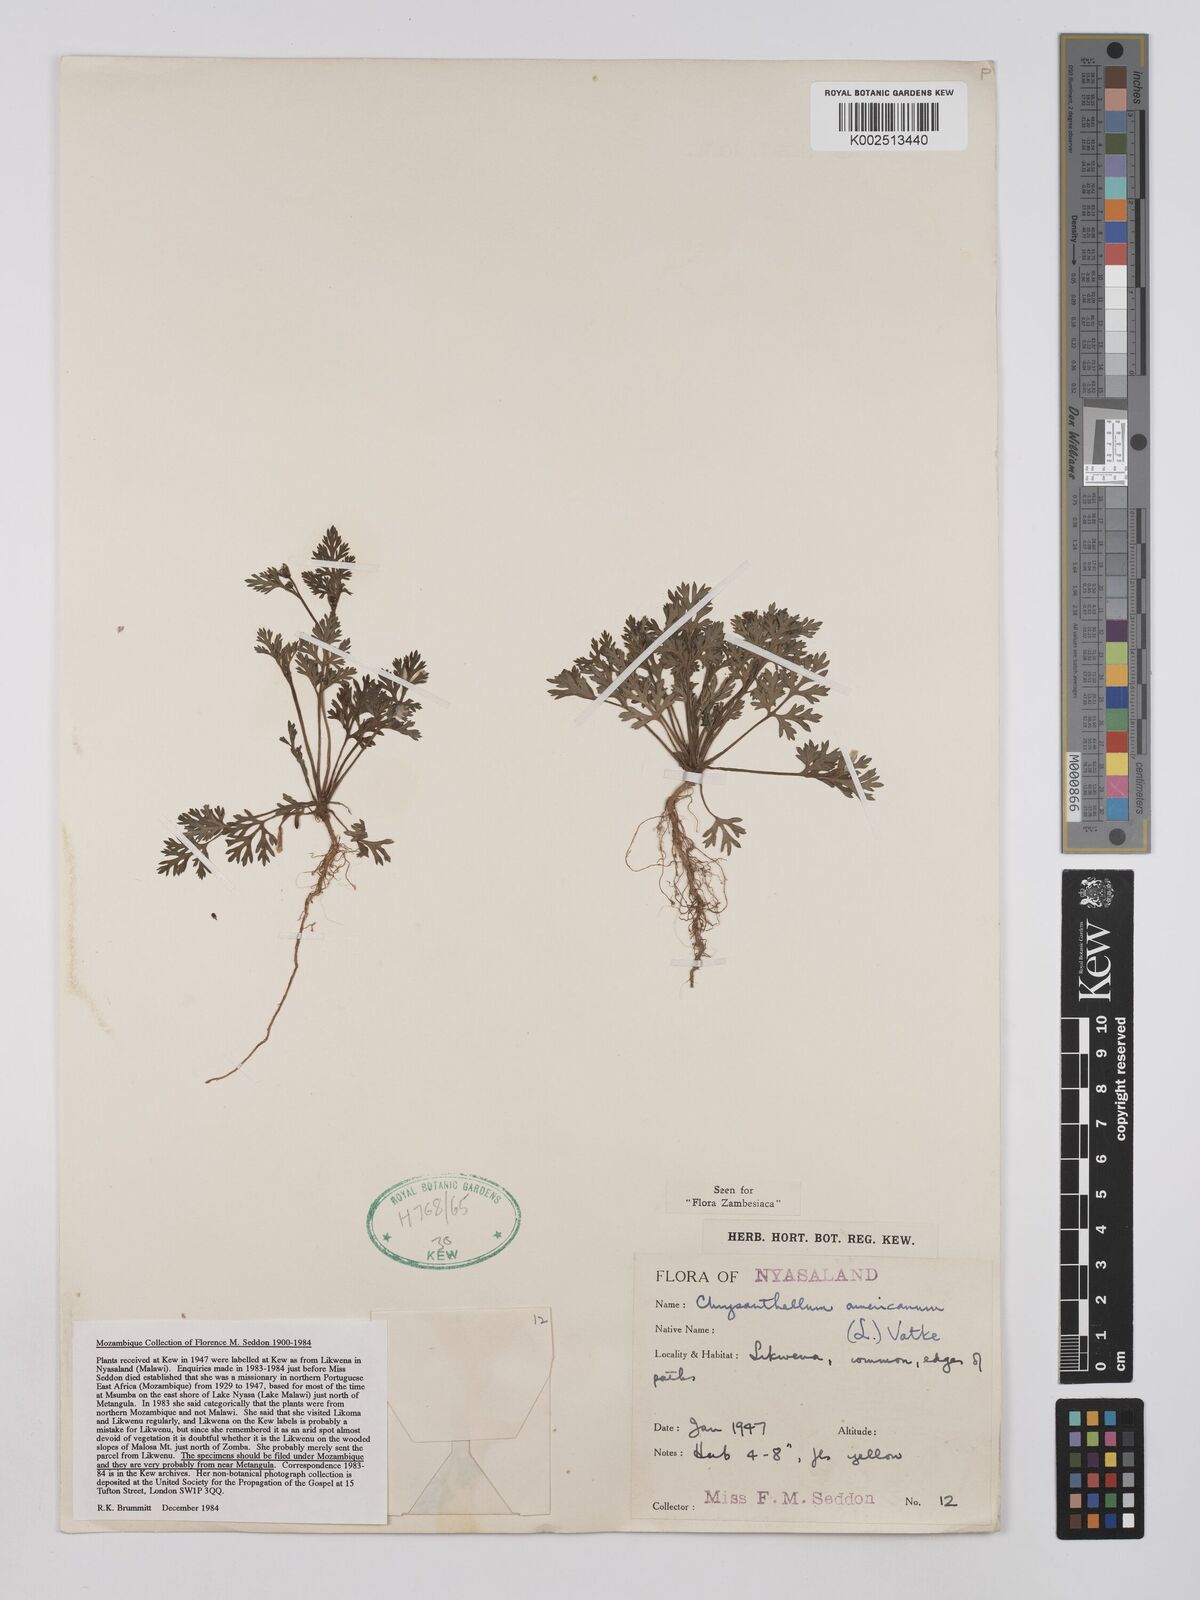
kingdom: Plantae
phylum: Tracheophyta
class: Magnoliopsida
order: Asterales
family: Asteraceae
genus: Chrysanthellum
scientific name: Chrysanthellum indicum
